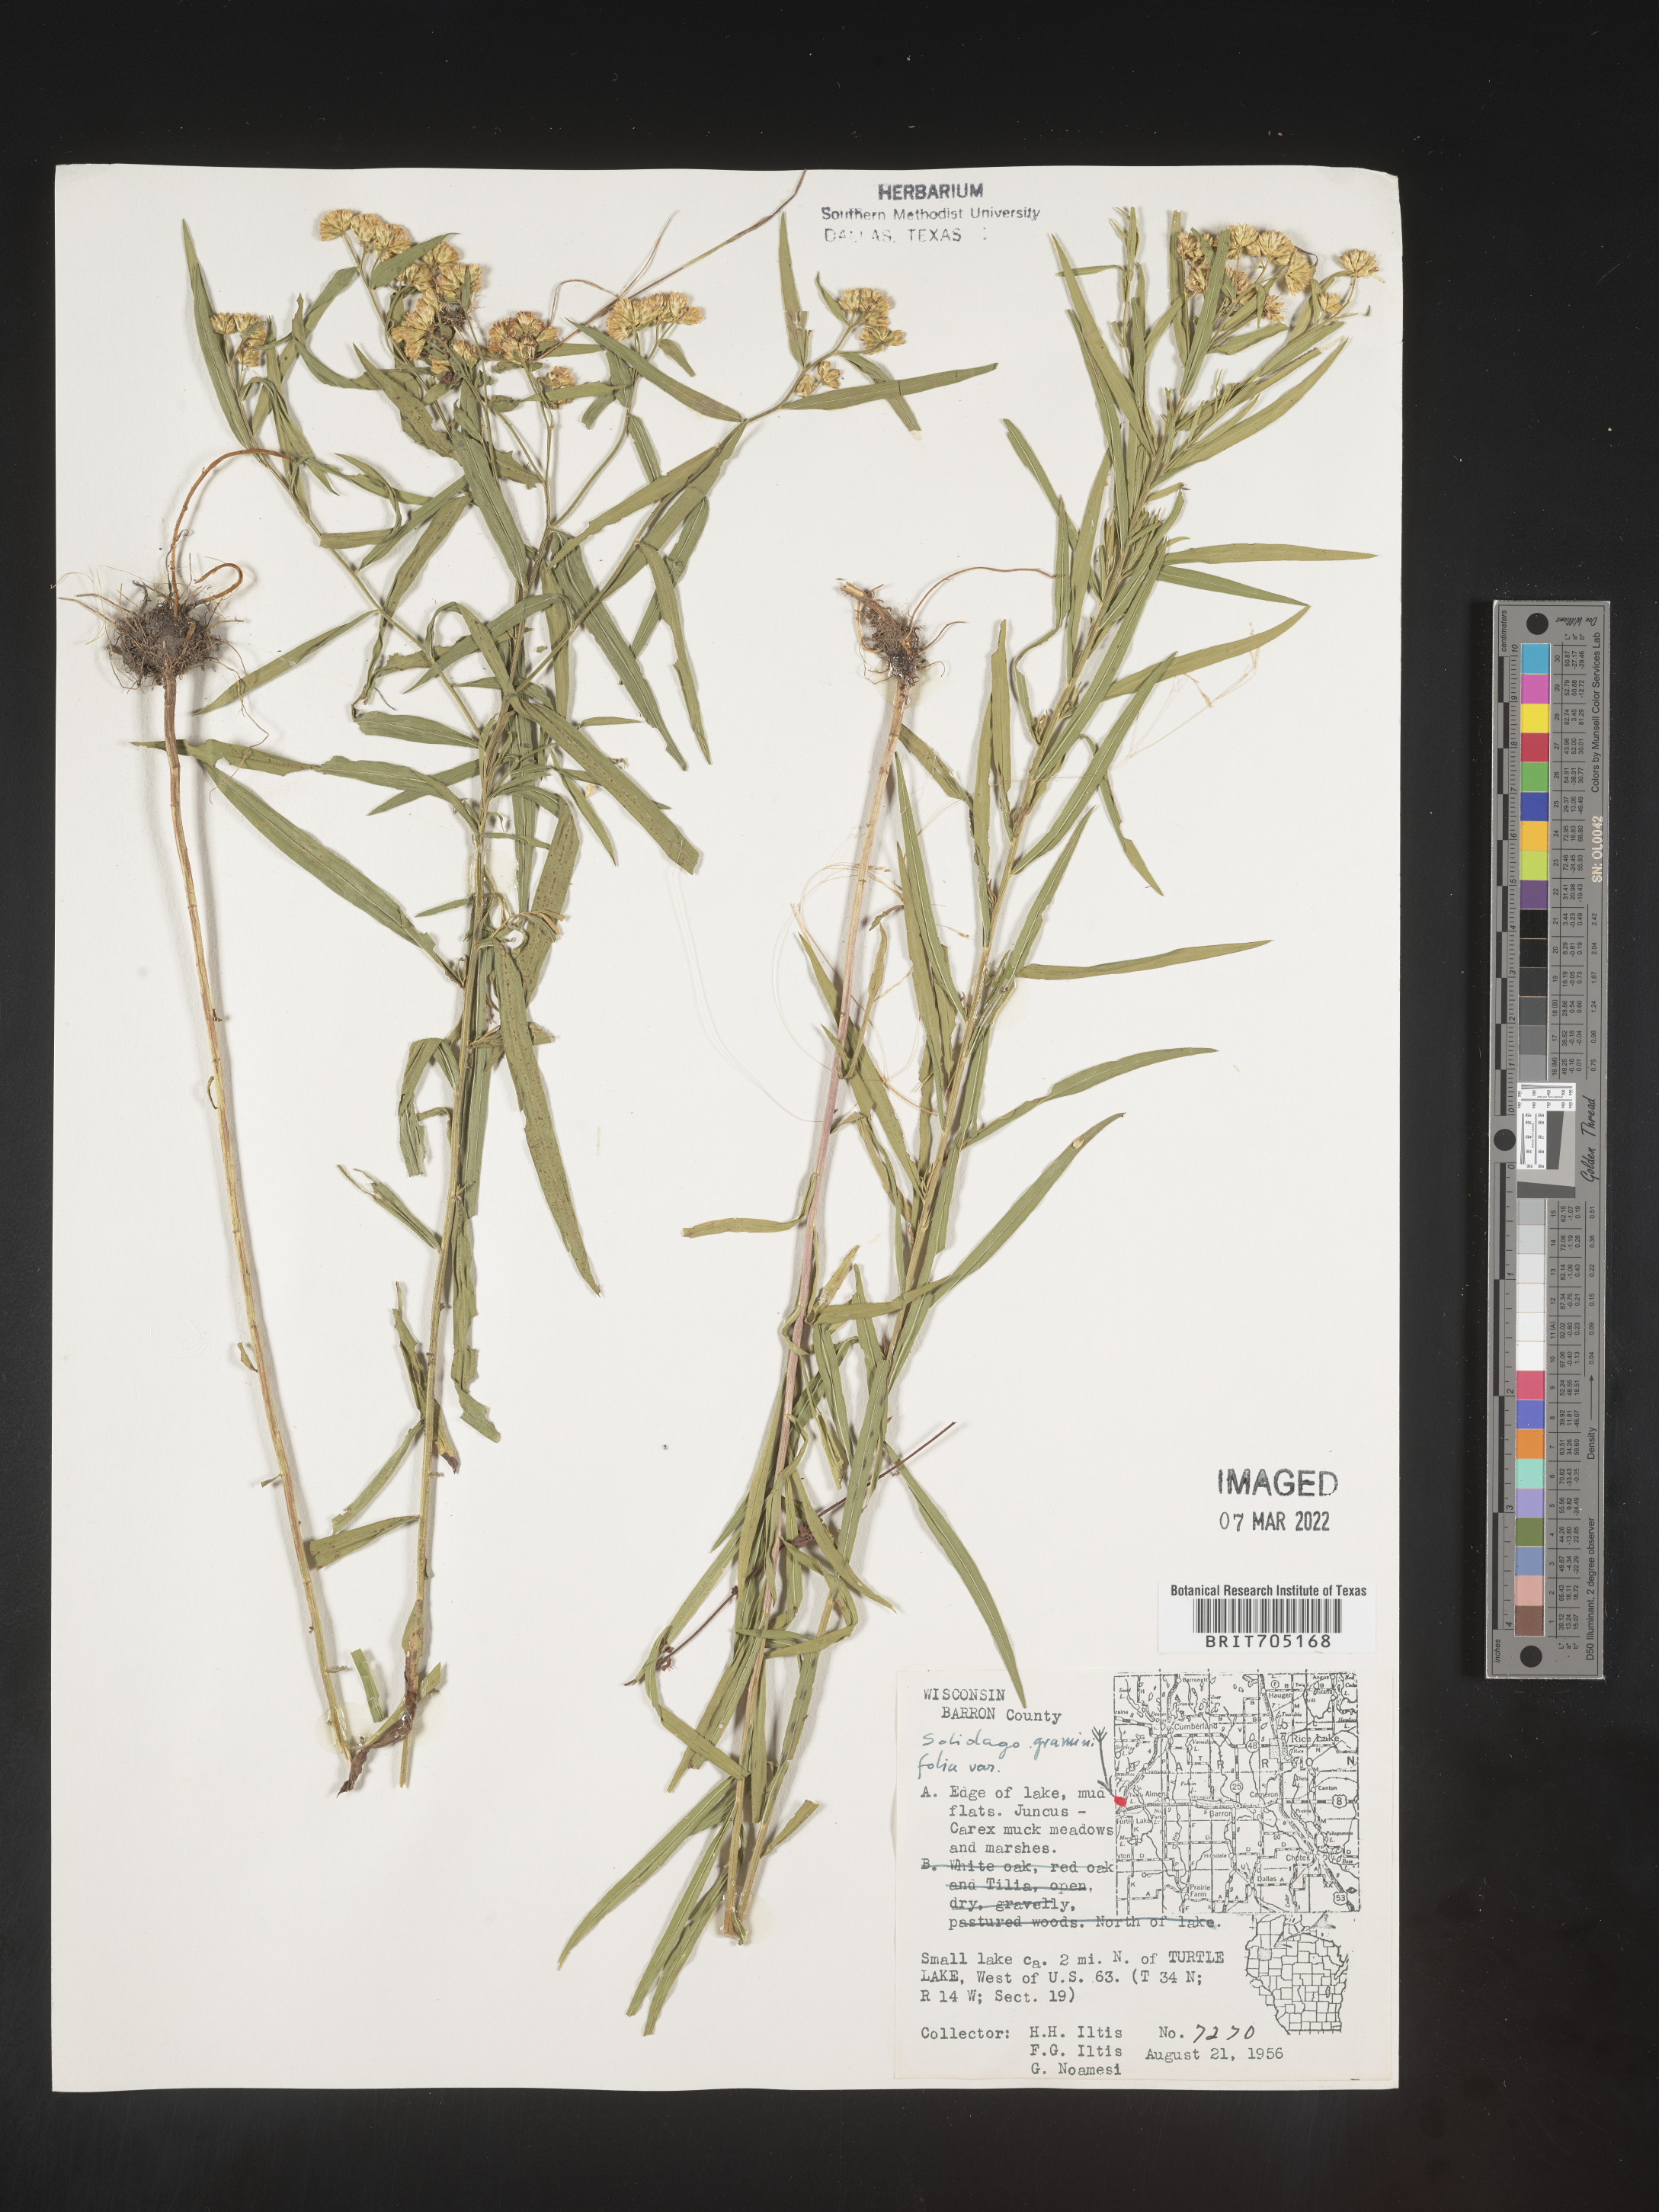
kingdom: Plantae
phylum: Tracheophyta
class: Magnoliopsida
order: Asterales
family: Asteraceae
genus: Euthamia
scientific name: Euthamia graminifolia
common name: Common goldentop
